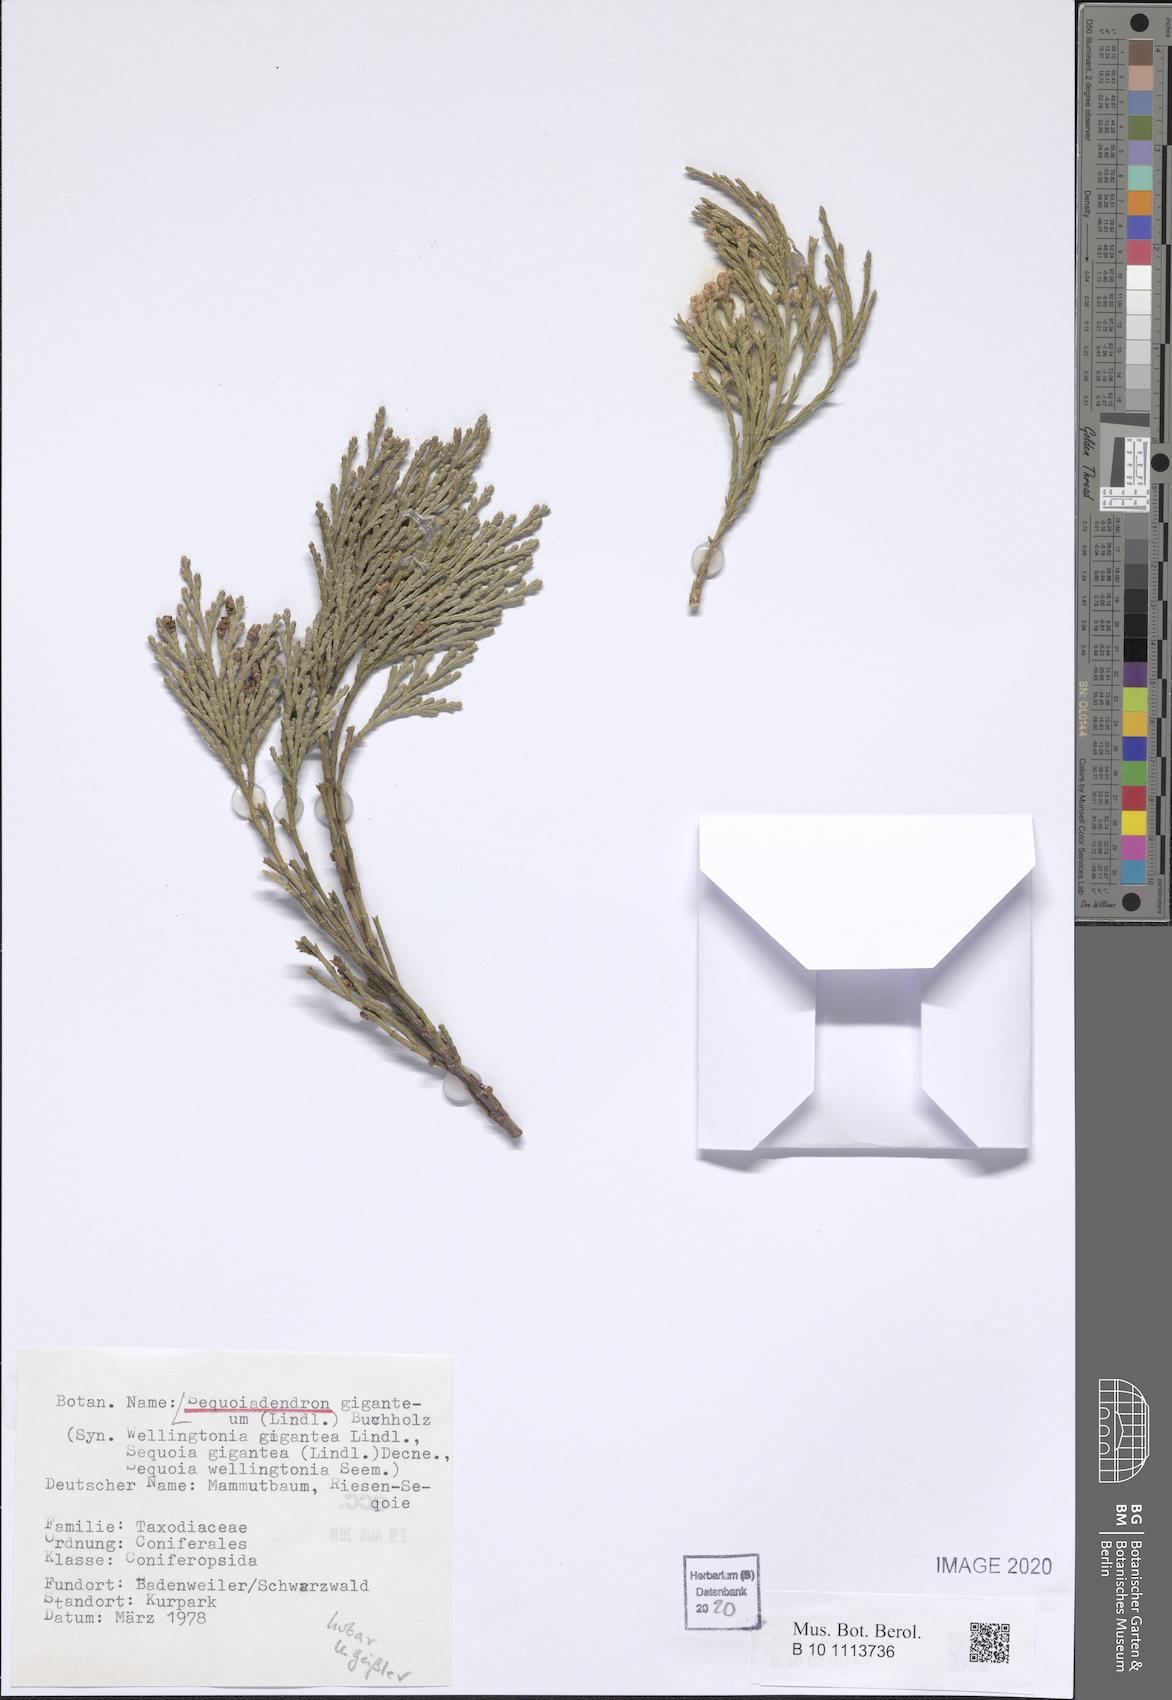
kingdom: Plantae
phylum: Tracheophyta
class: Pinopsida
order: Pinales
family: Cupressaceae
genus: Sequoiadendron
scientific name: Sequoiadendron giganteum
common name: Wellingtonia
